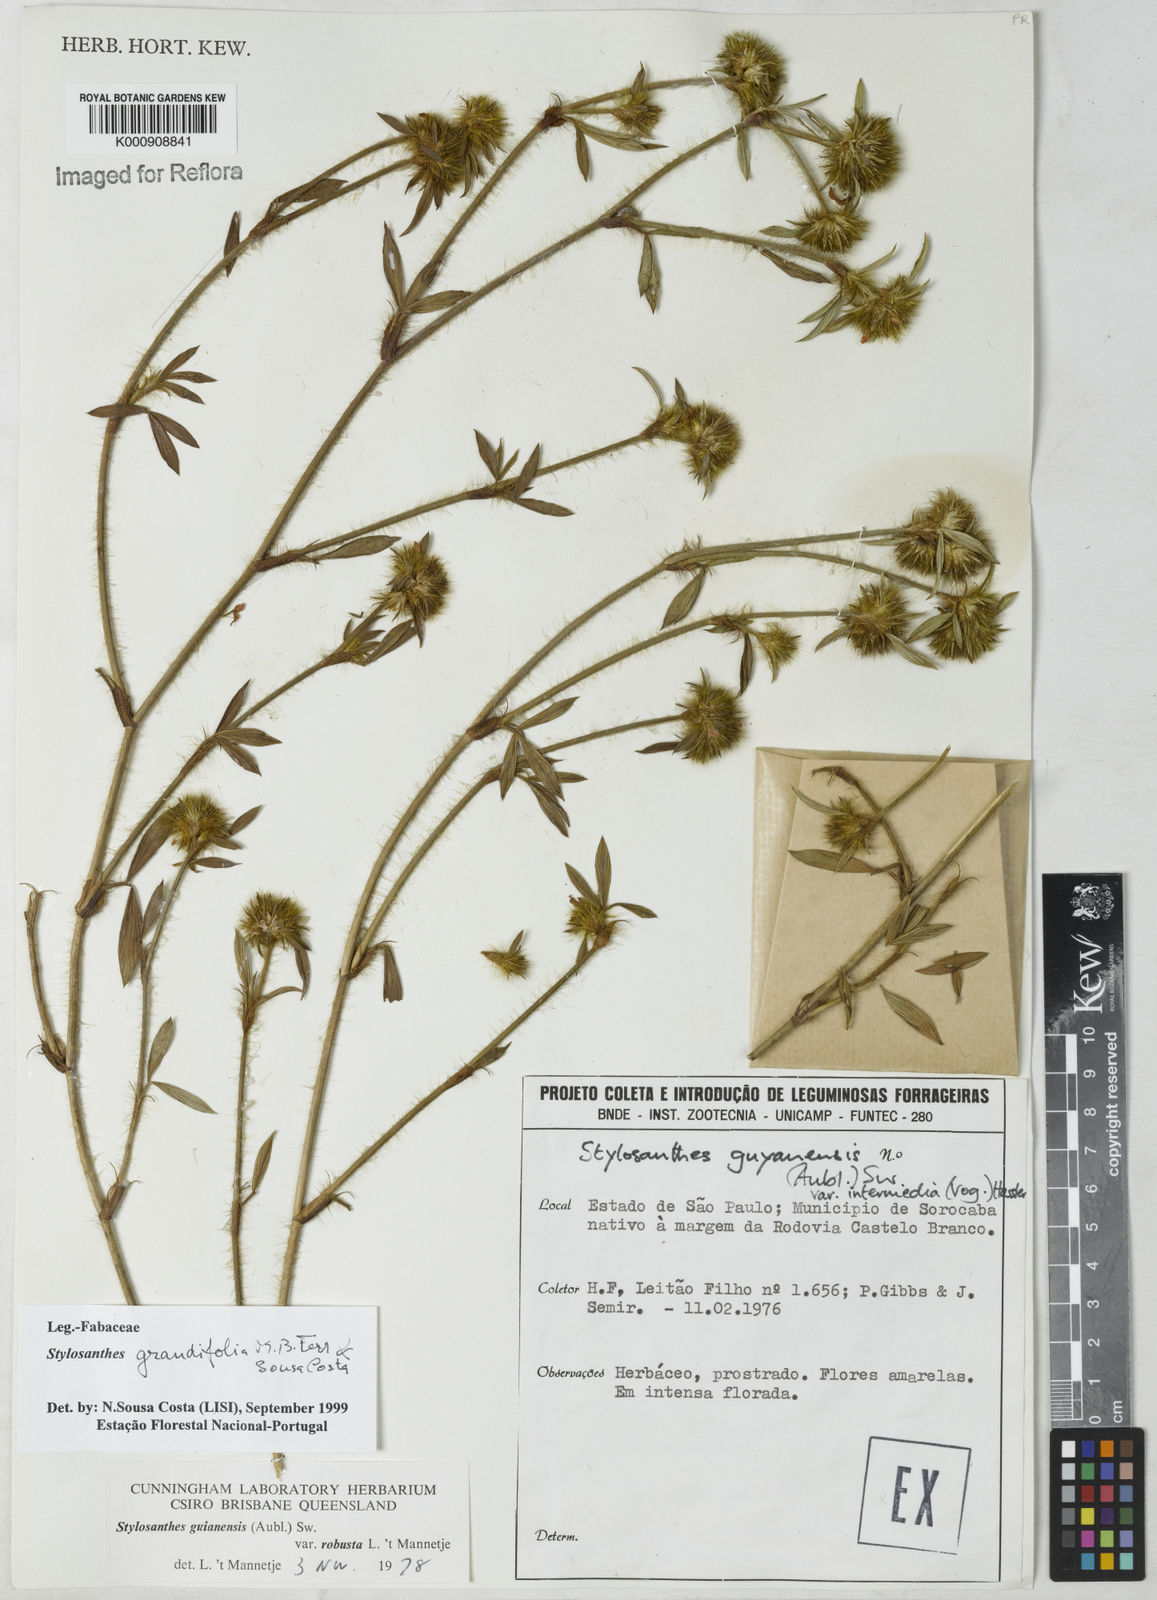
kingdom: Plantae
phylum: Tracheophyta
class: Magnoliopsida
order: Fabales
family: Fabaceae
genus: Stylosanthes
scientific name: Stylosanthes guianensis
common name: Pencil flower
